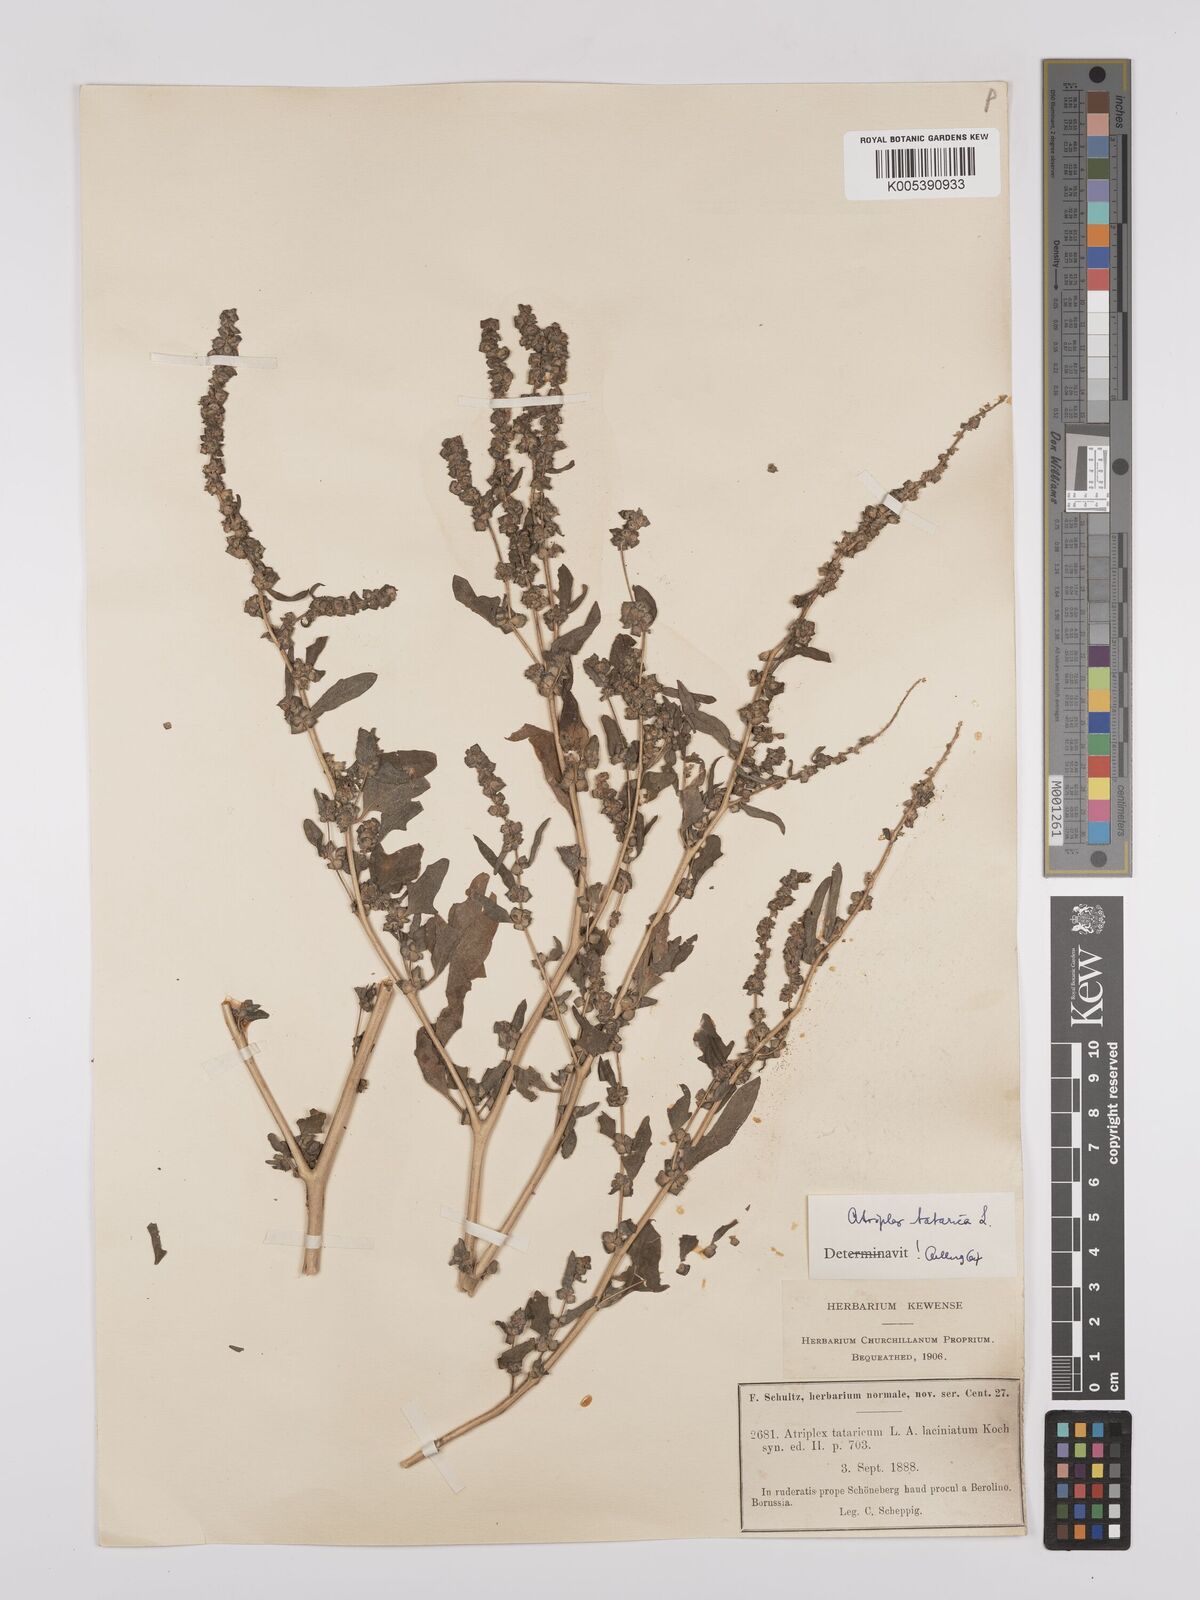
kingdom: Plantae
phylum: Tracheophyta
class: Magnoliopsida
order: Caryophyllales
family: Amaranthaceae
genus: Atriplex
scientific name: Atriplex
